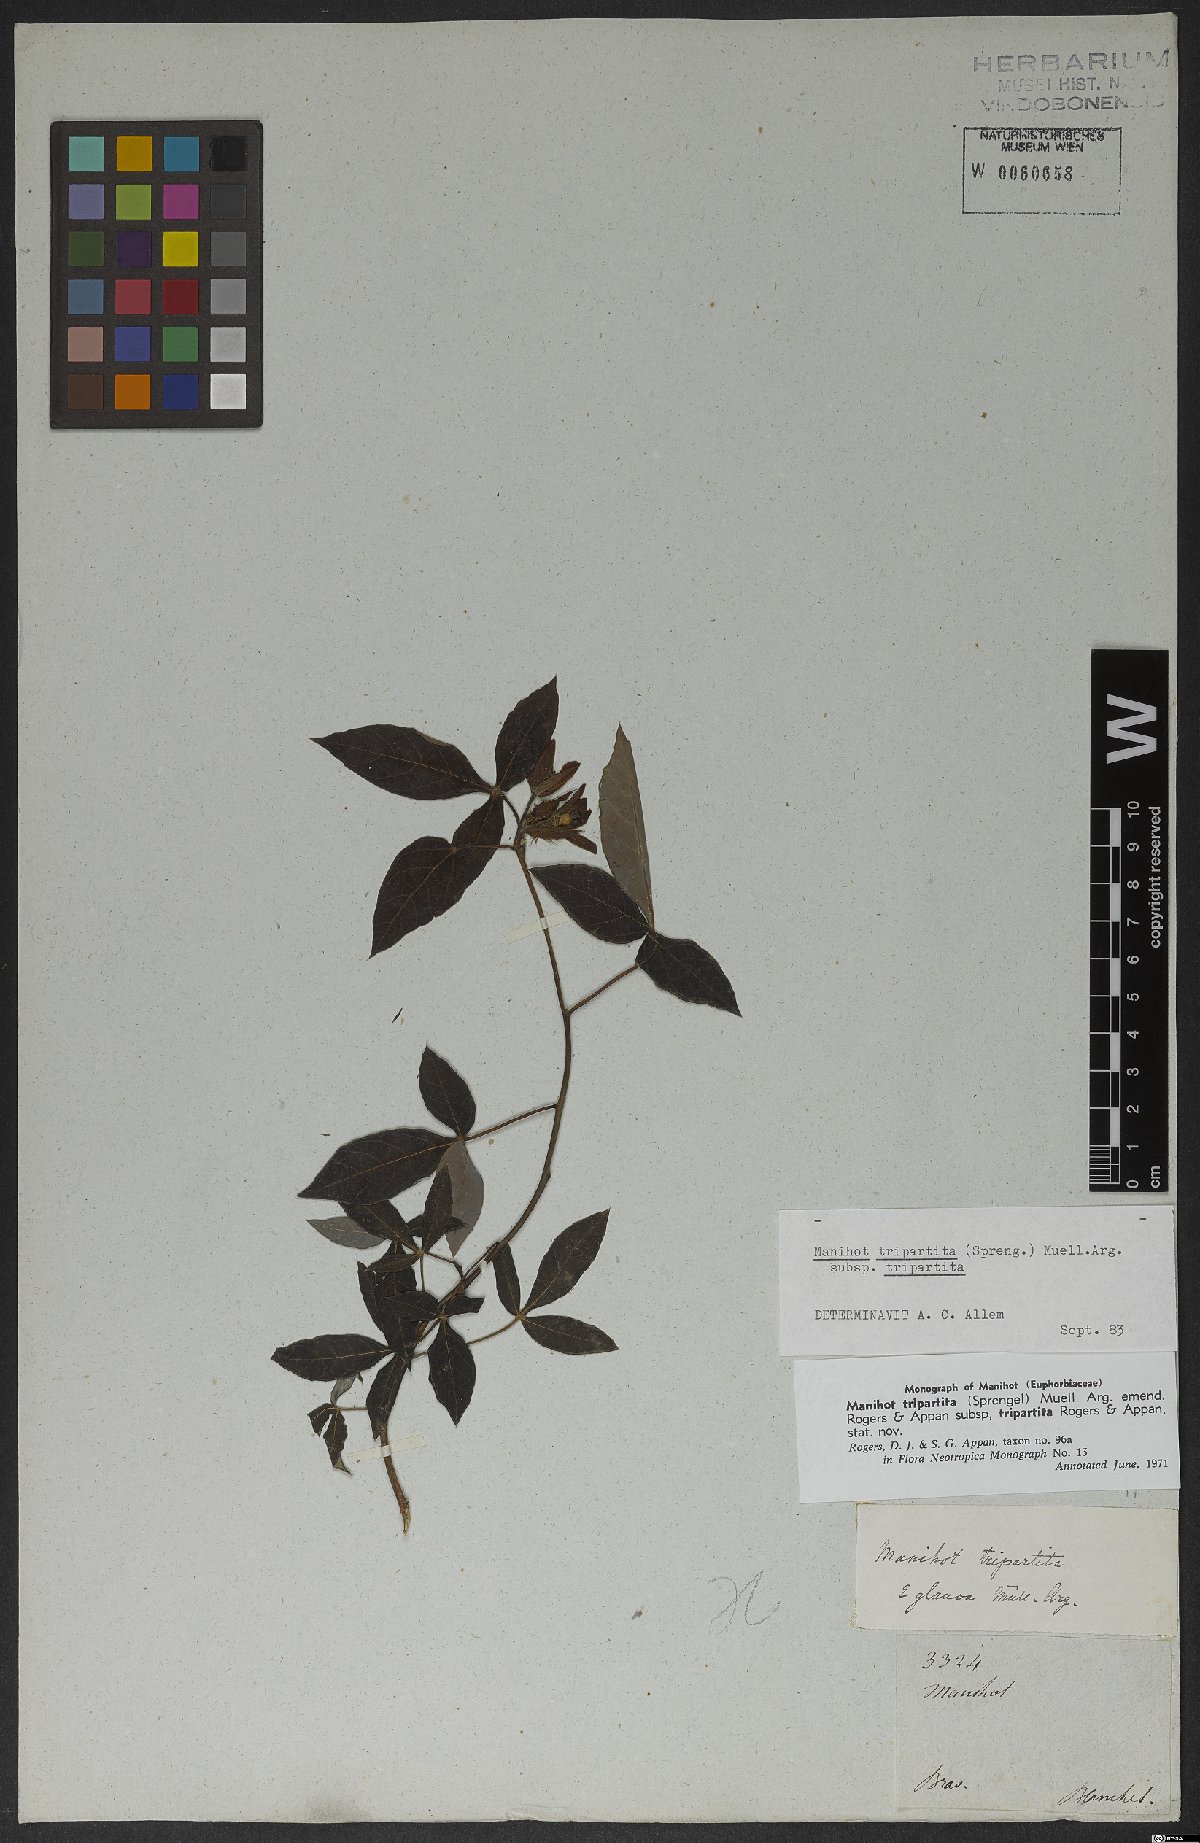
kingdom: Plantae
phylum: Tracheophyta
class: Magnoliopsida
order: Malpighiales
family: Euphorbiaceae
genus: Manihot
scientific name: Manihot tripartita
